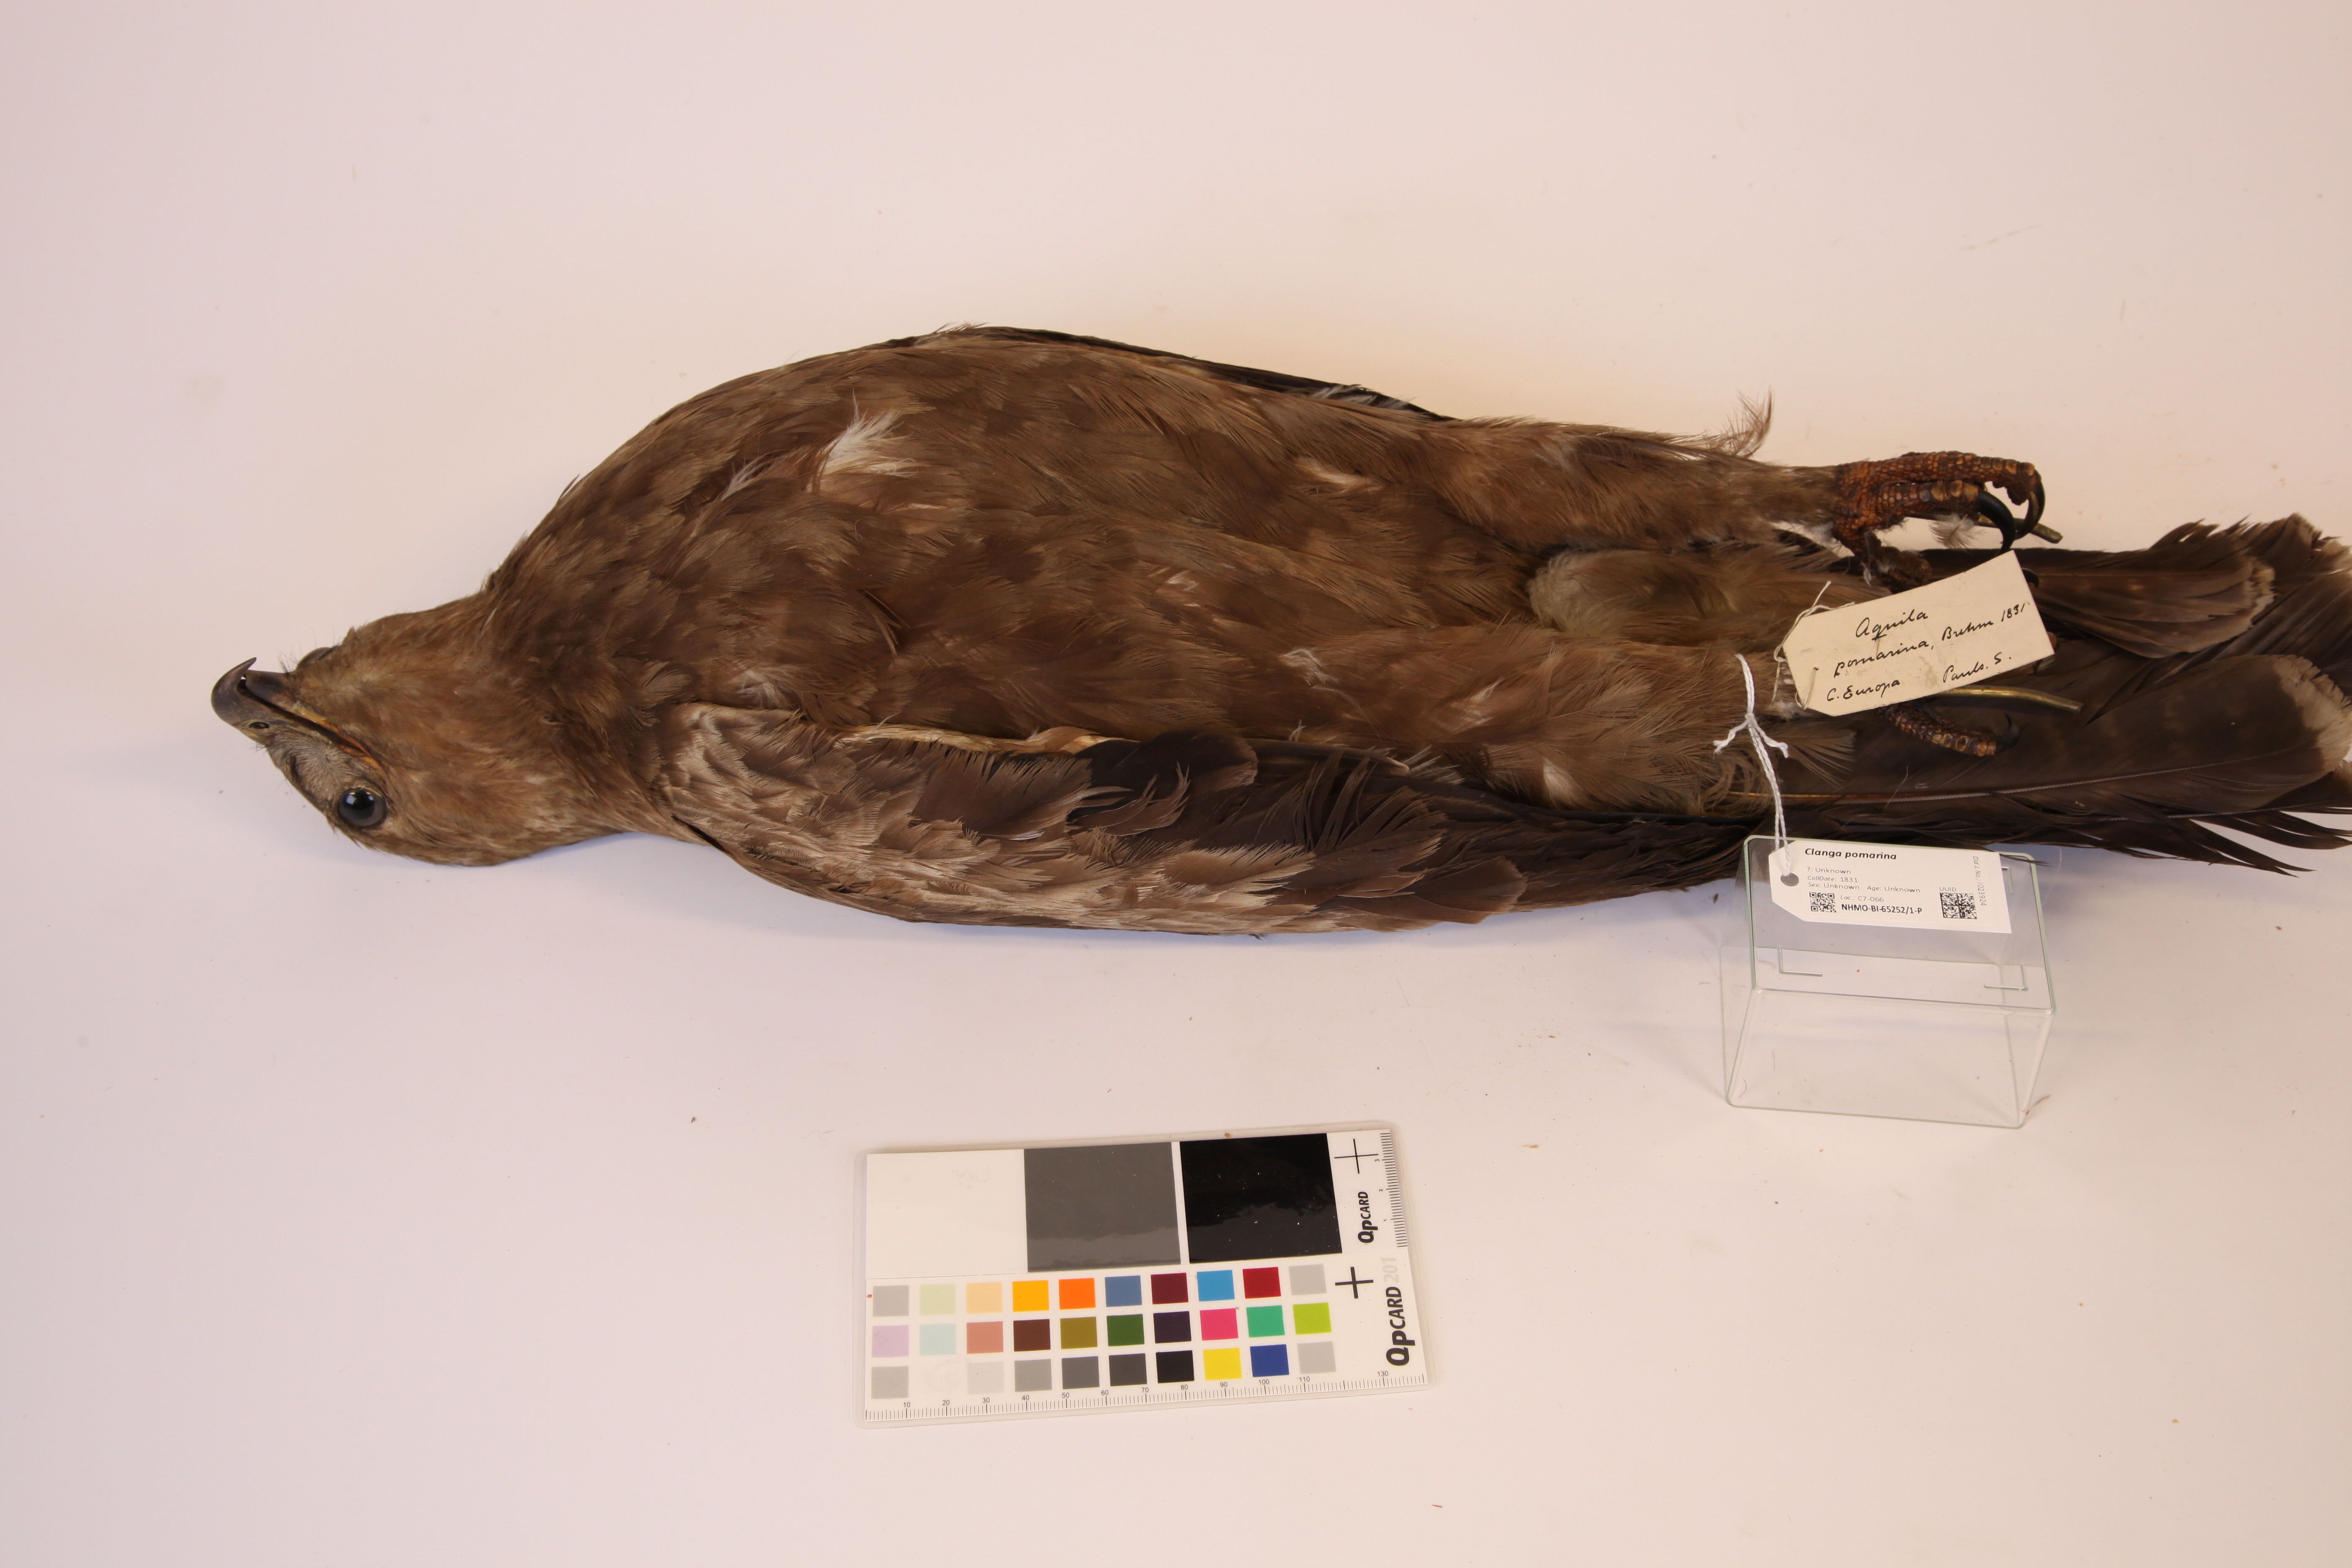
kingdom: Animalia
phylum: Chordata
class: Aves
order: Accipitriformes
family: Accipitridae
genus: Aquila
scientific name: Aquila pomarina
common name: Lesser spotted eagle
